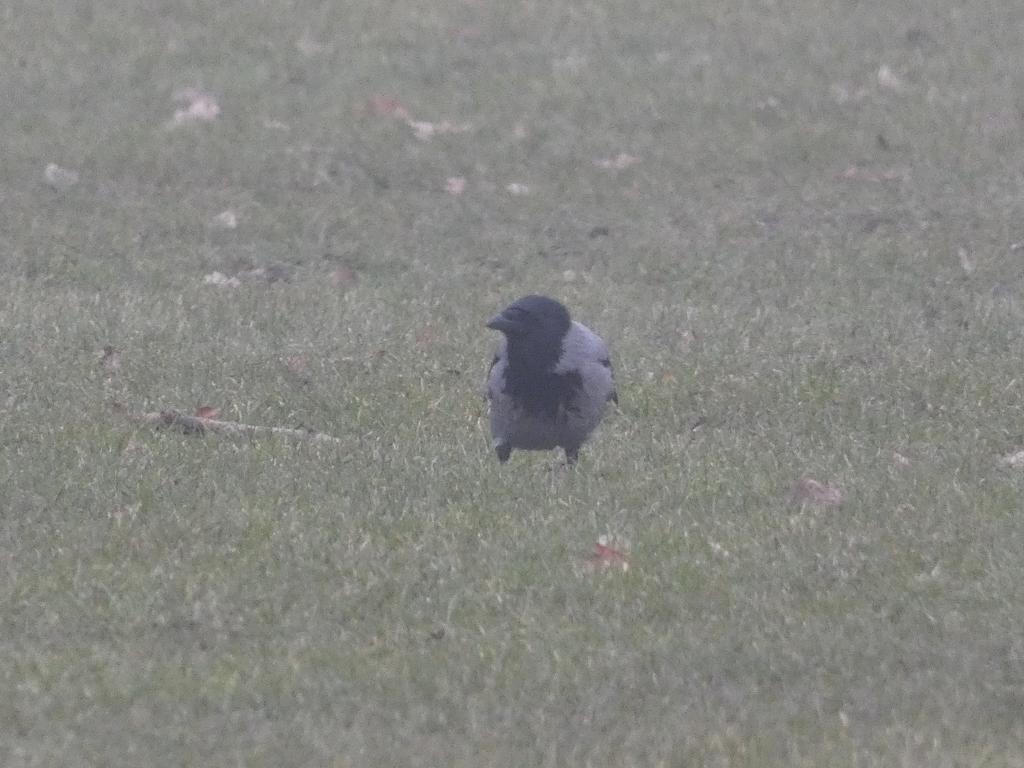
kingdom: Animalia
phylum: Chordata
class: Aves
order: Passeriformes
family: Corvidae
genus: Corvus
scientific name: Corvus cornix
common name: Gråkrage
